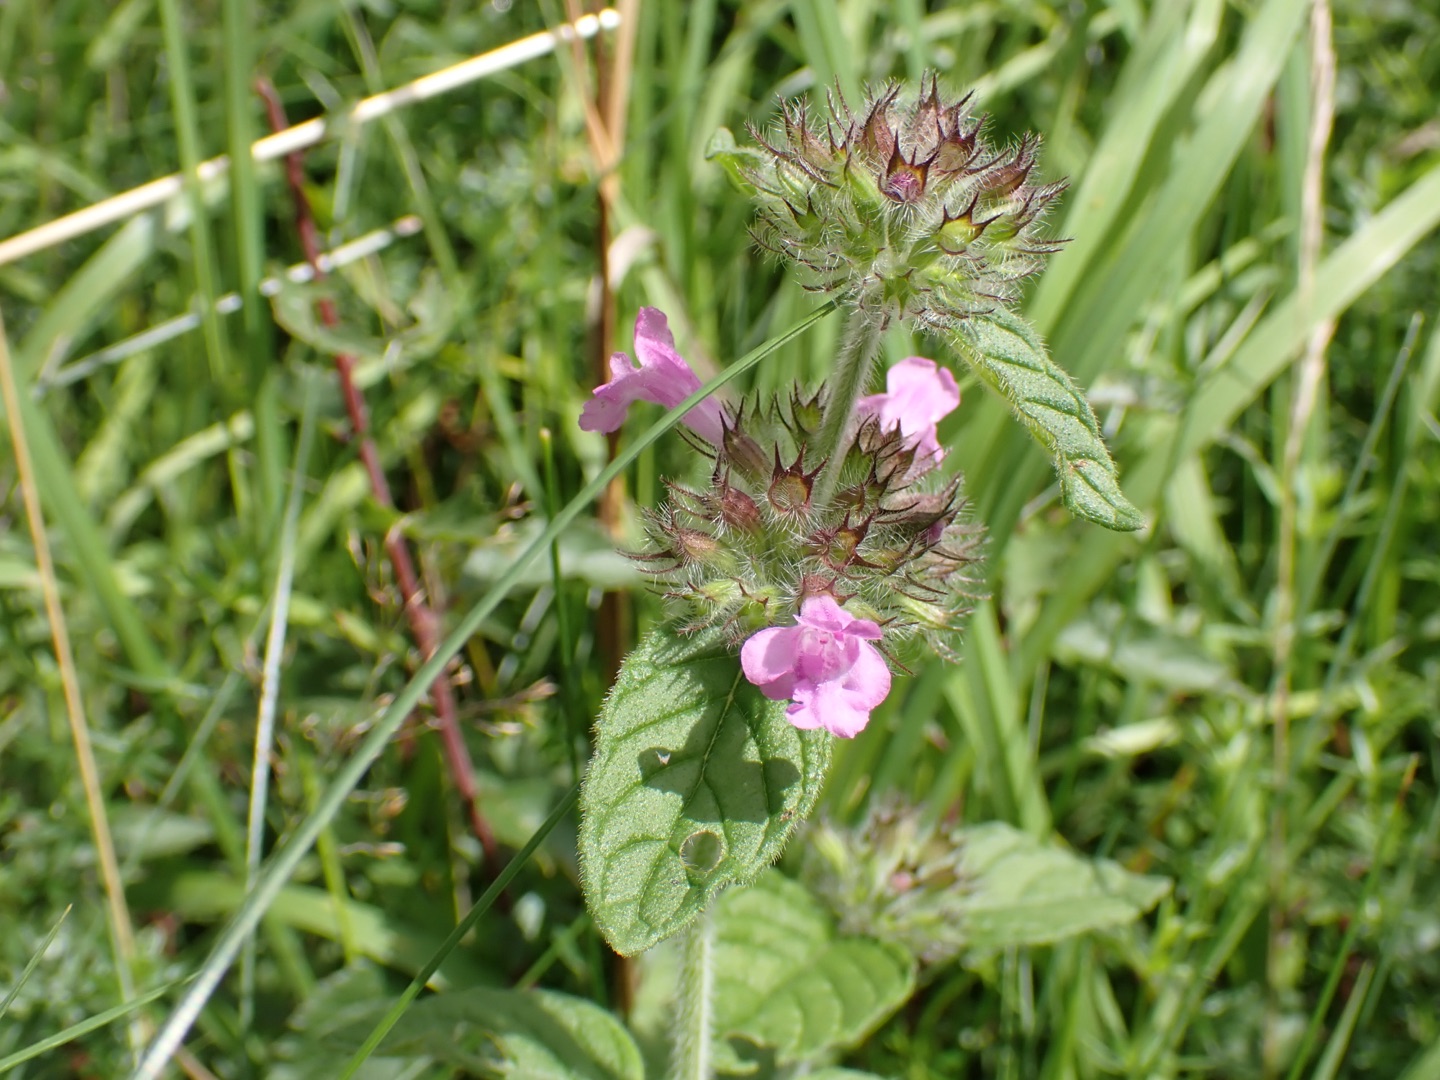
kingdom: Plantae
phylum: Tracheophyta
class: Magnoliopsida
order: Lamiales
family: Lamiaceae
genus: Clinopodium
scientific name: Clinopodium vulgare
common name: Kransbørste
